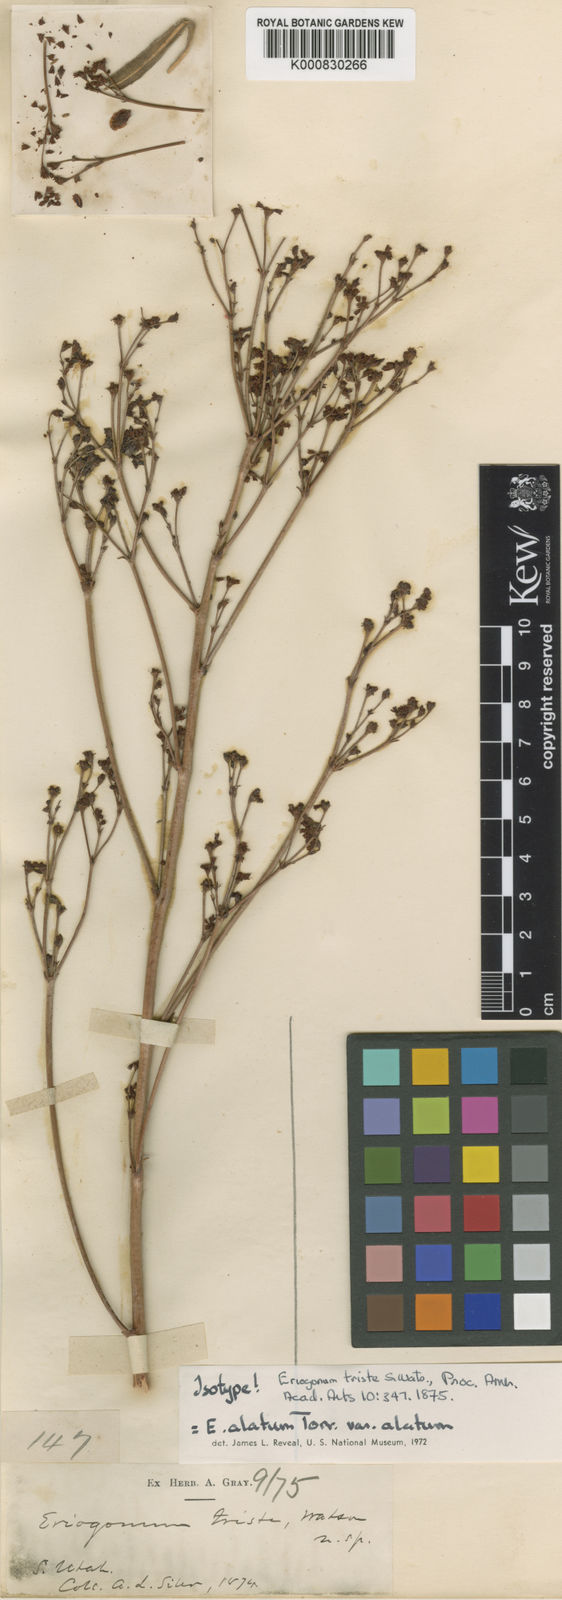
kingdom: Plantae
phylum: Tracheophyta
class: Magnoliopsida
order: Caryophyllales
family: Polygonaceae
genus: Eriogonum
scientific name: Eriogonum alatum
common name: Winged eriogonum
